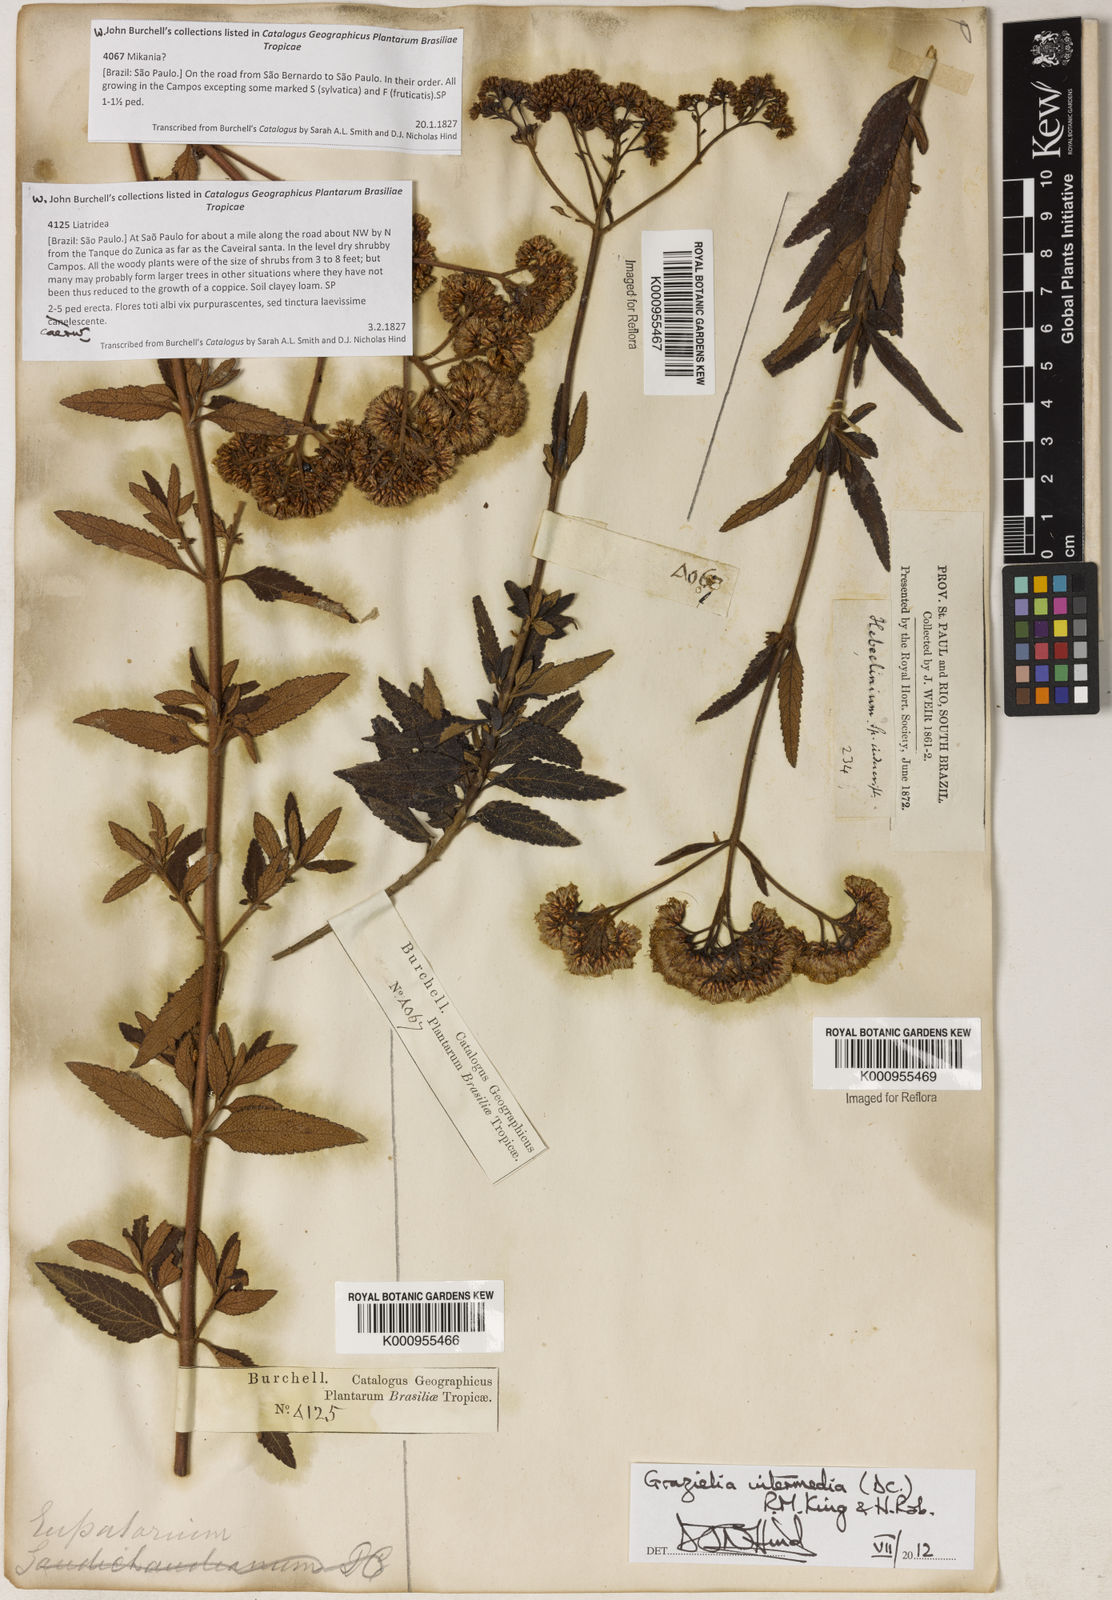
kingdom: Plantae
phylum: Tracheophyta
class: Magnoliopsida
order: Asterales
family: Asteraceae
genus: Grazielia
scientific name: Grazielia intermedia
